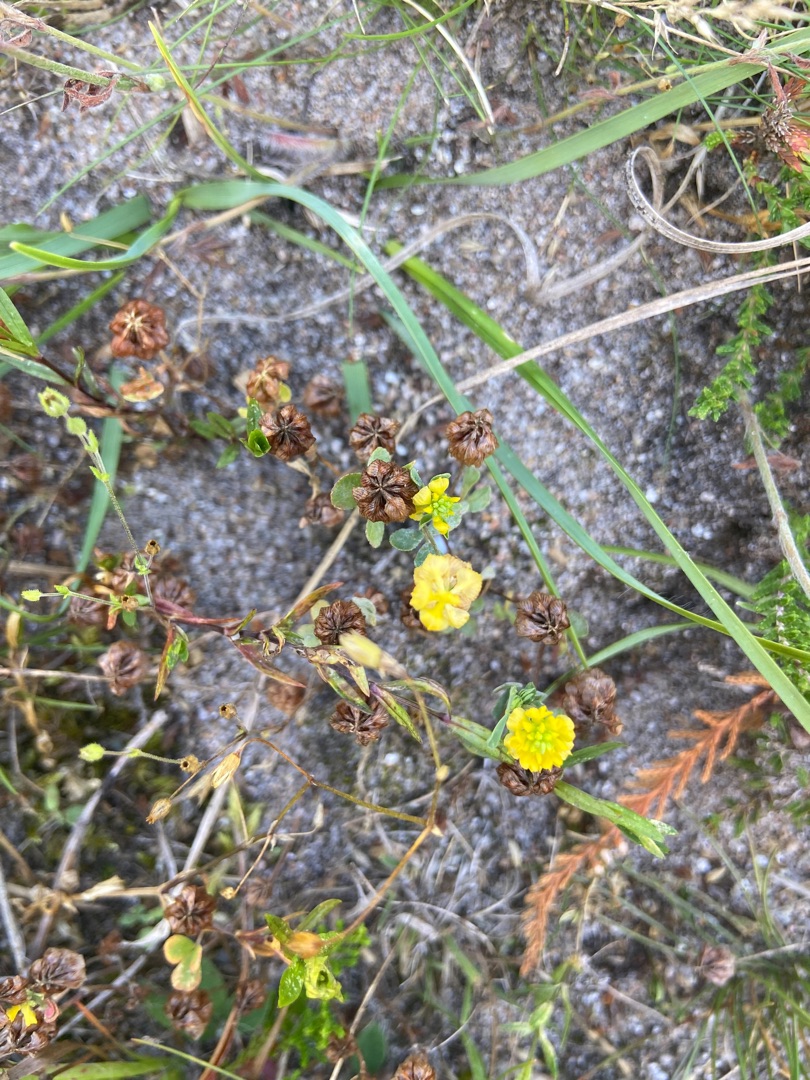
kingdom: Plantae
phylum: Tracheophyta
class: Magnoliopsida
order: Fabales
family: Fabaceae
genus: Trifolium
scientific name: Trifolium campestre
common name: Gul kløver
